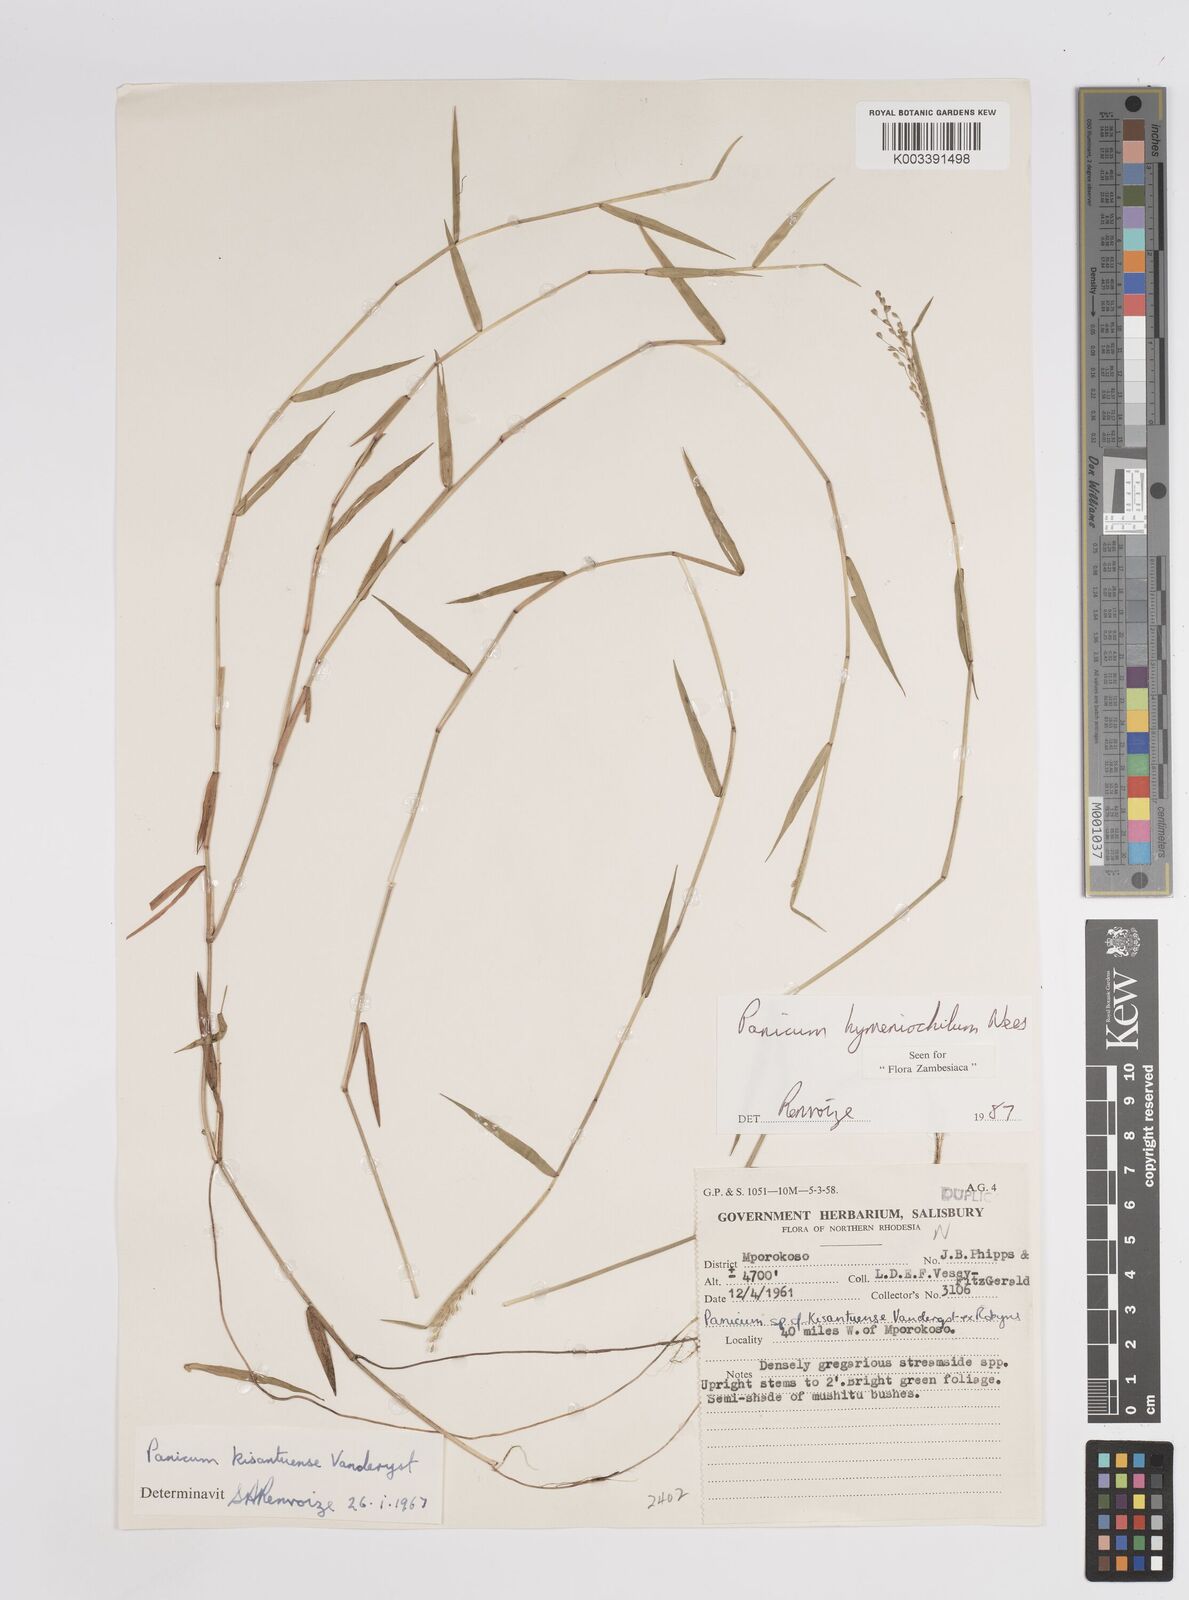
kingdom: Plantae
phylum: Tracheophyta
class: Liliopsida
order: Poales
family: Poaceae
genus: Adenochloa
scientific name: Adenochloa hymeniochila
